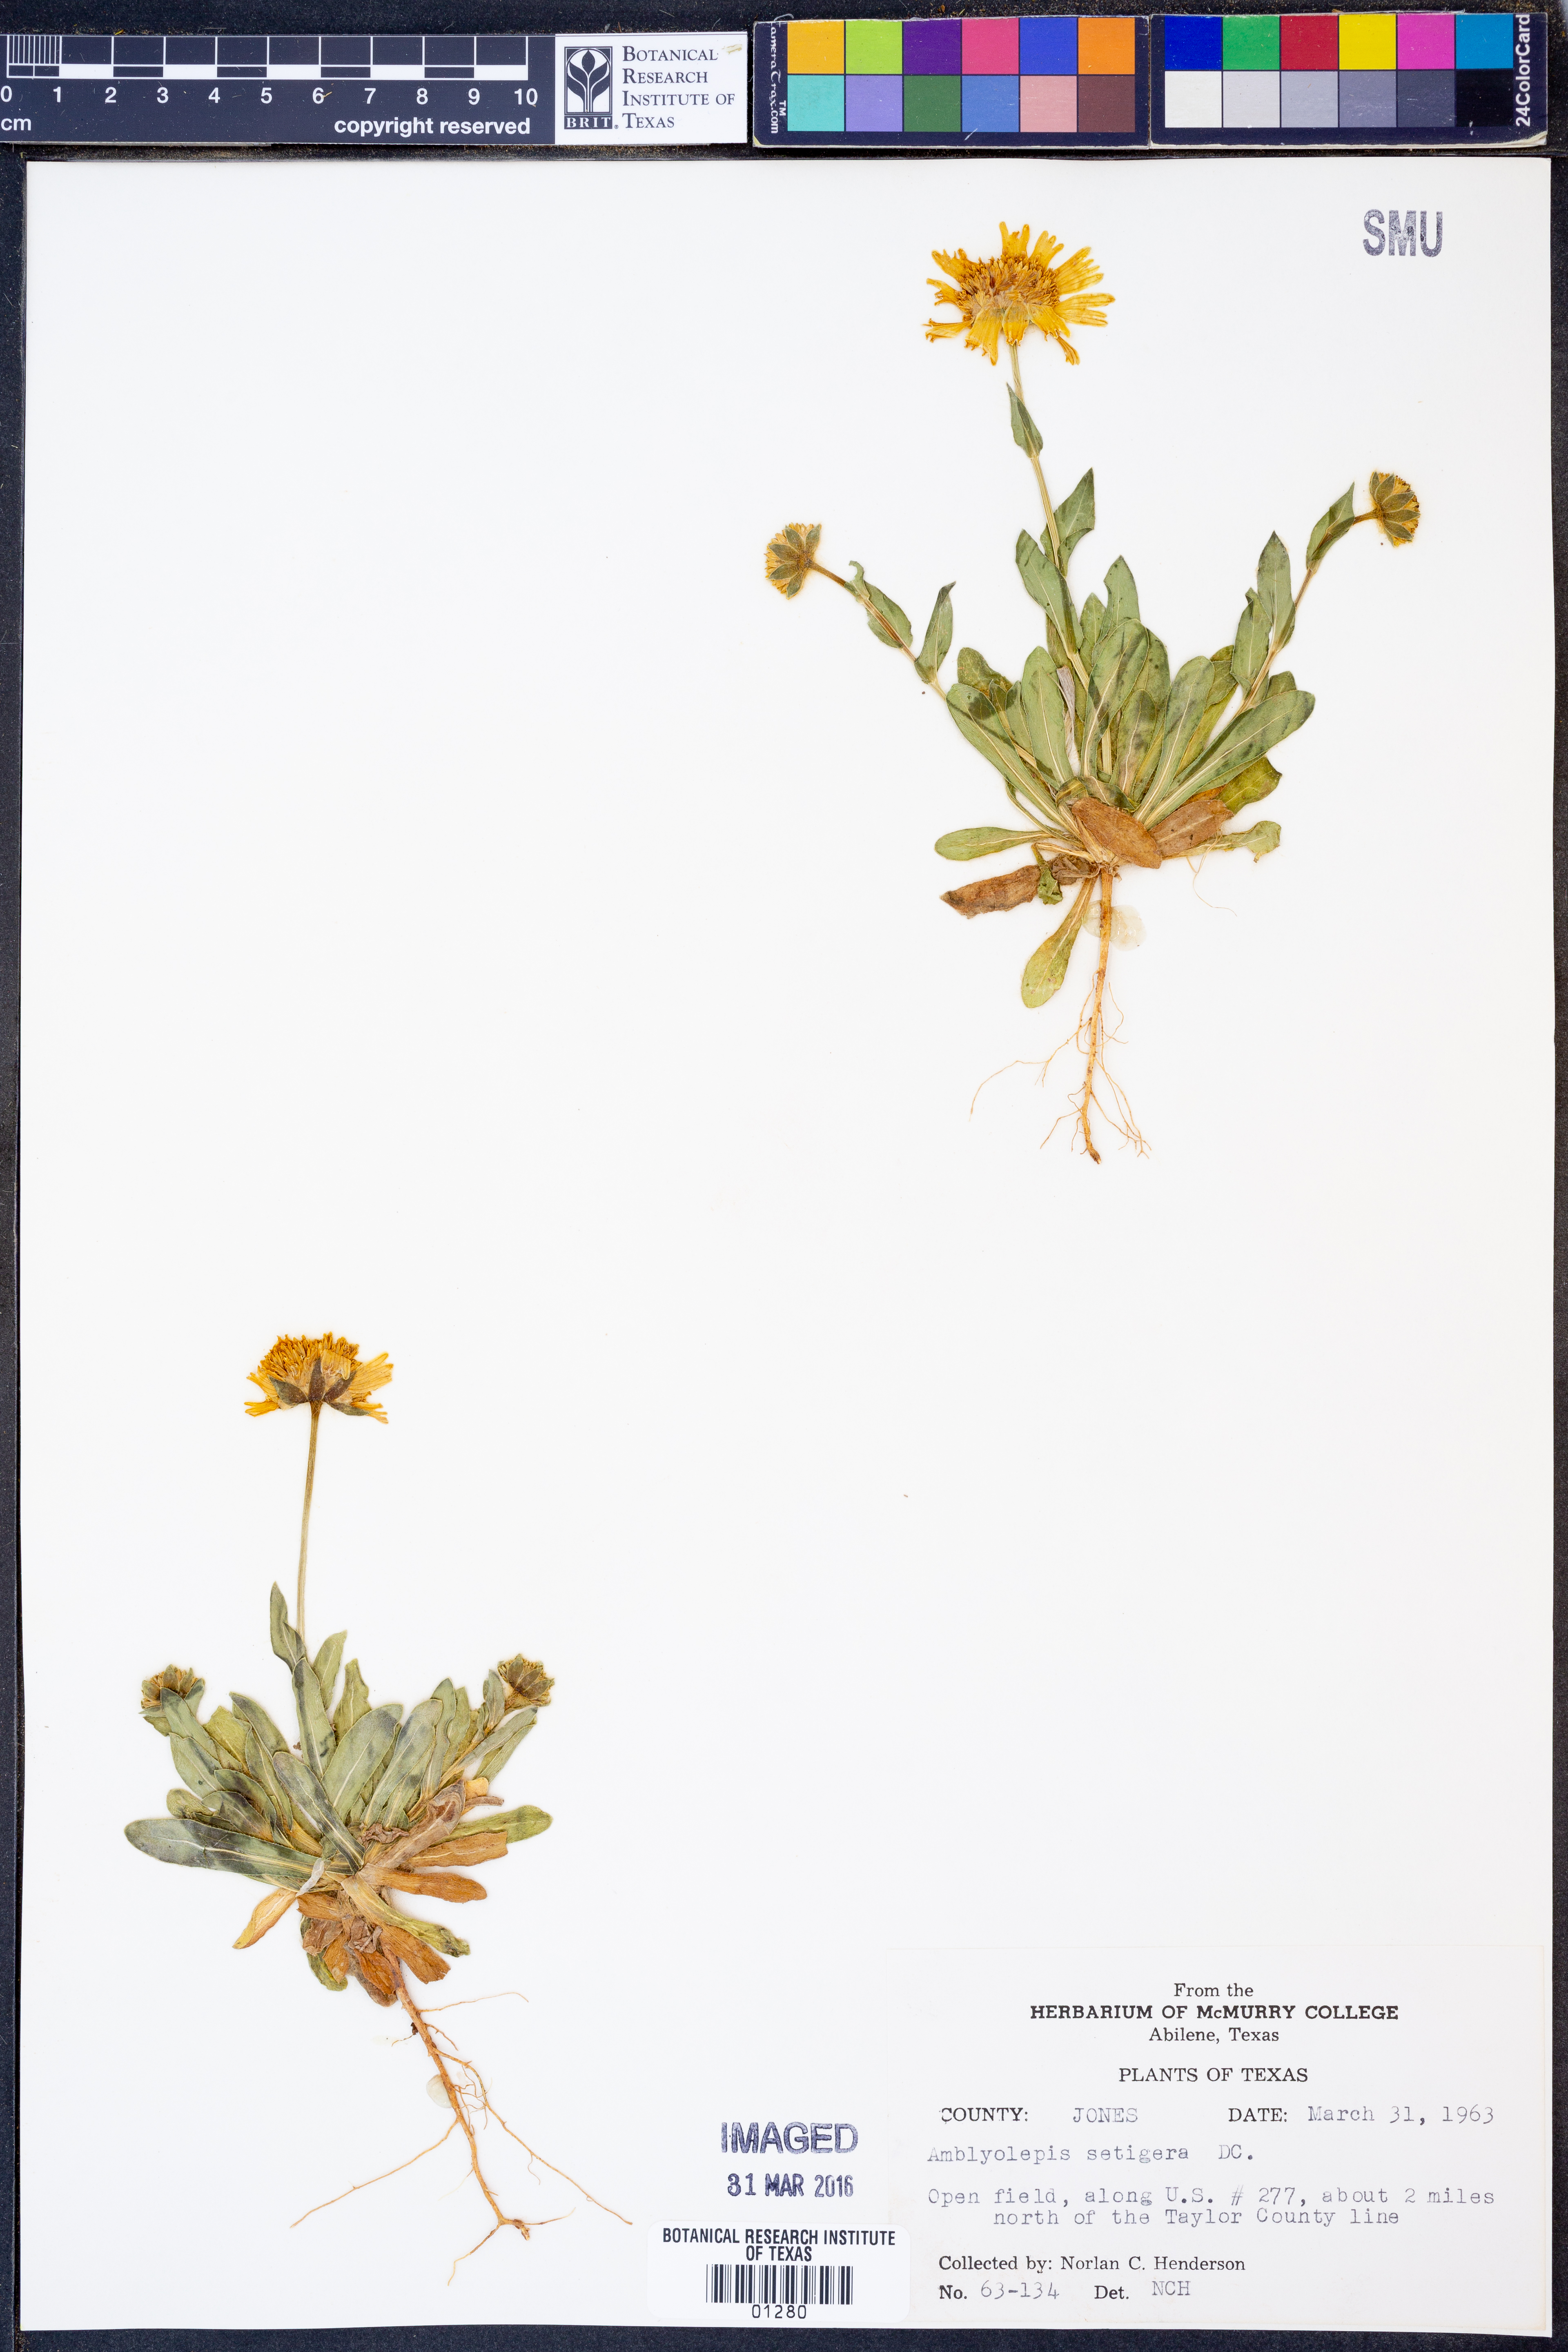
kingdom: Plantae
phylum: Tracheophyta
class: Magnoliopsida
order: Asterales
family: Asteraceae
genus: Amblyolepis
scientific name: Amblyolepis setigera
